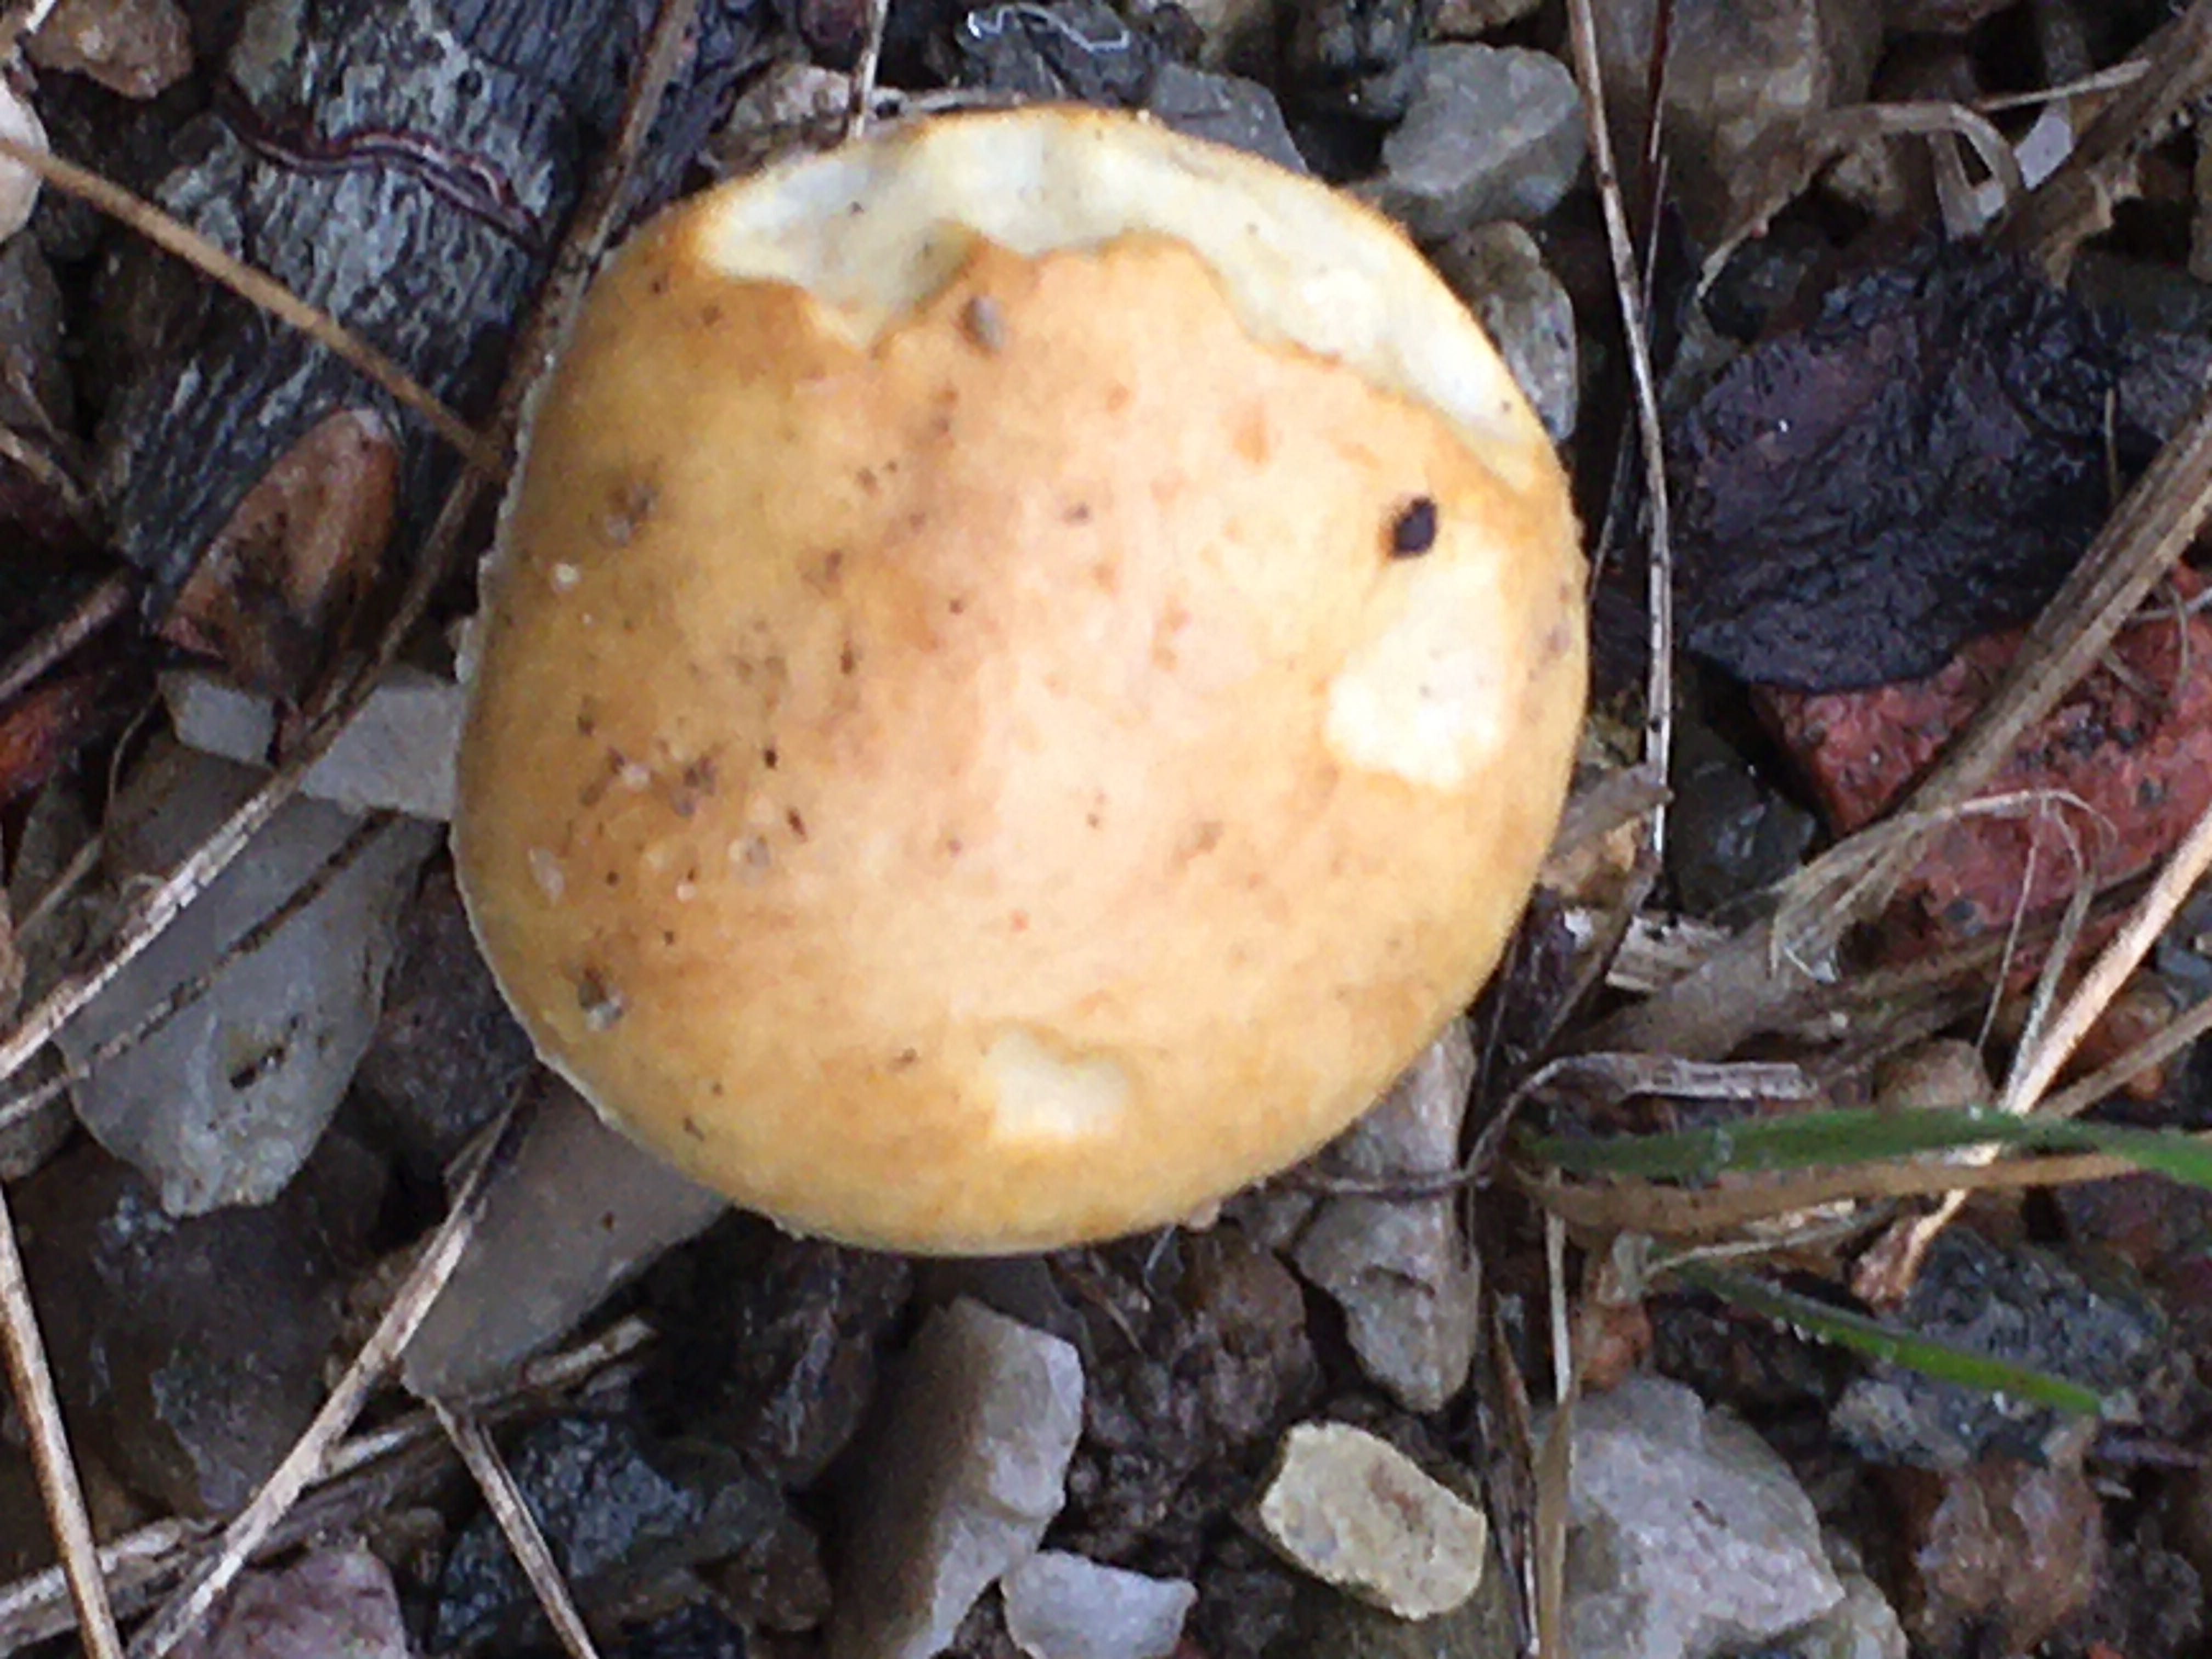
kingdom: Fungi
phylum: Basidiomycota
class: Agaricomycetes
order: Agaricales
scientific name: Agaricales
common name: champignonordenen
